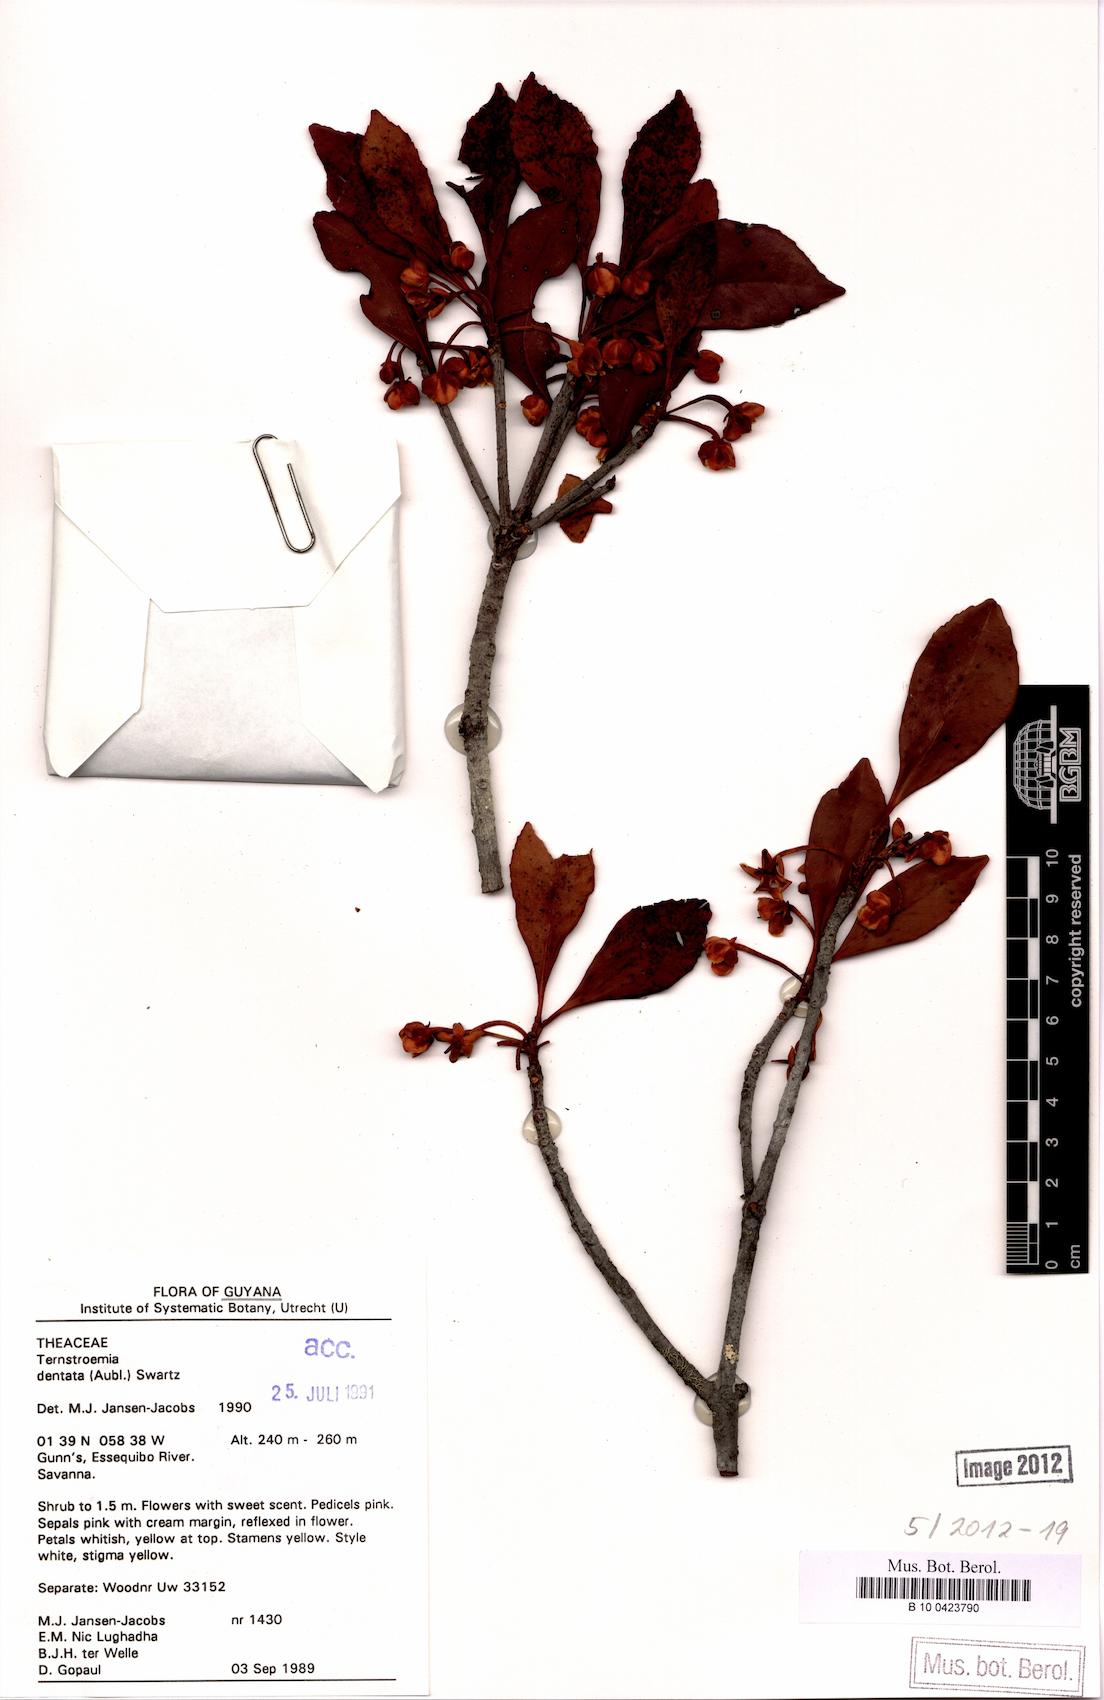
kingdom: Plantae
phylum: Tracheophyta
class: Magnoliopsida
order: Ericales
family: Pentaphylacaceae
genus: Ternstroemia
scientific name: Ternstroemia dentata
